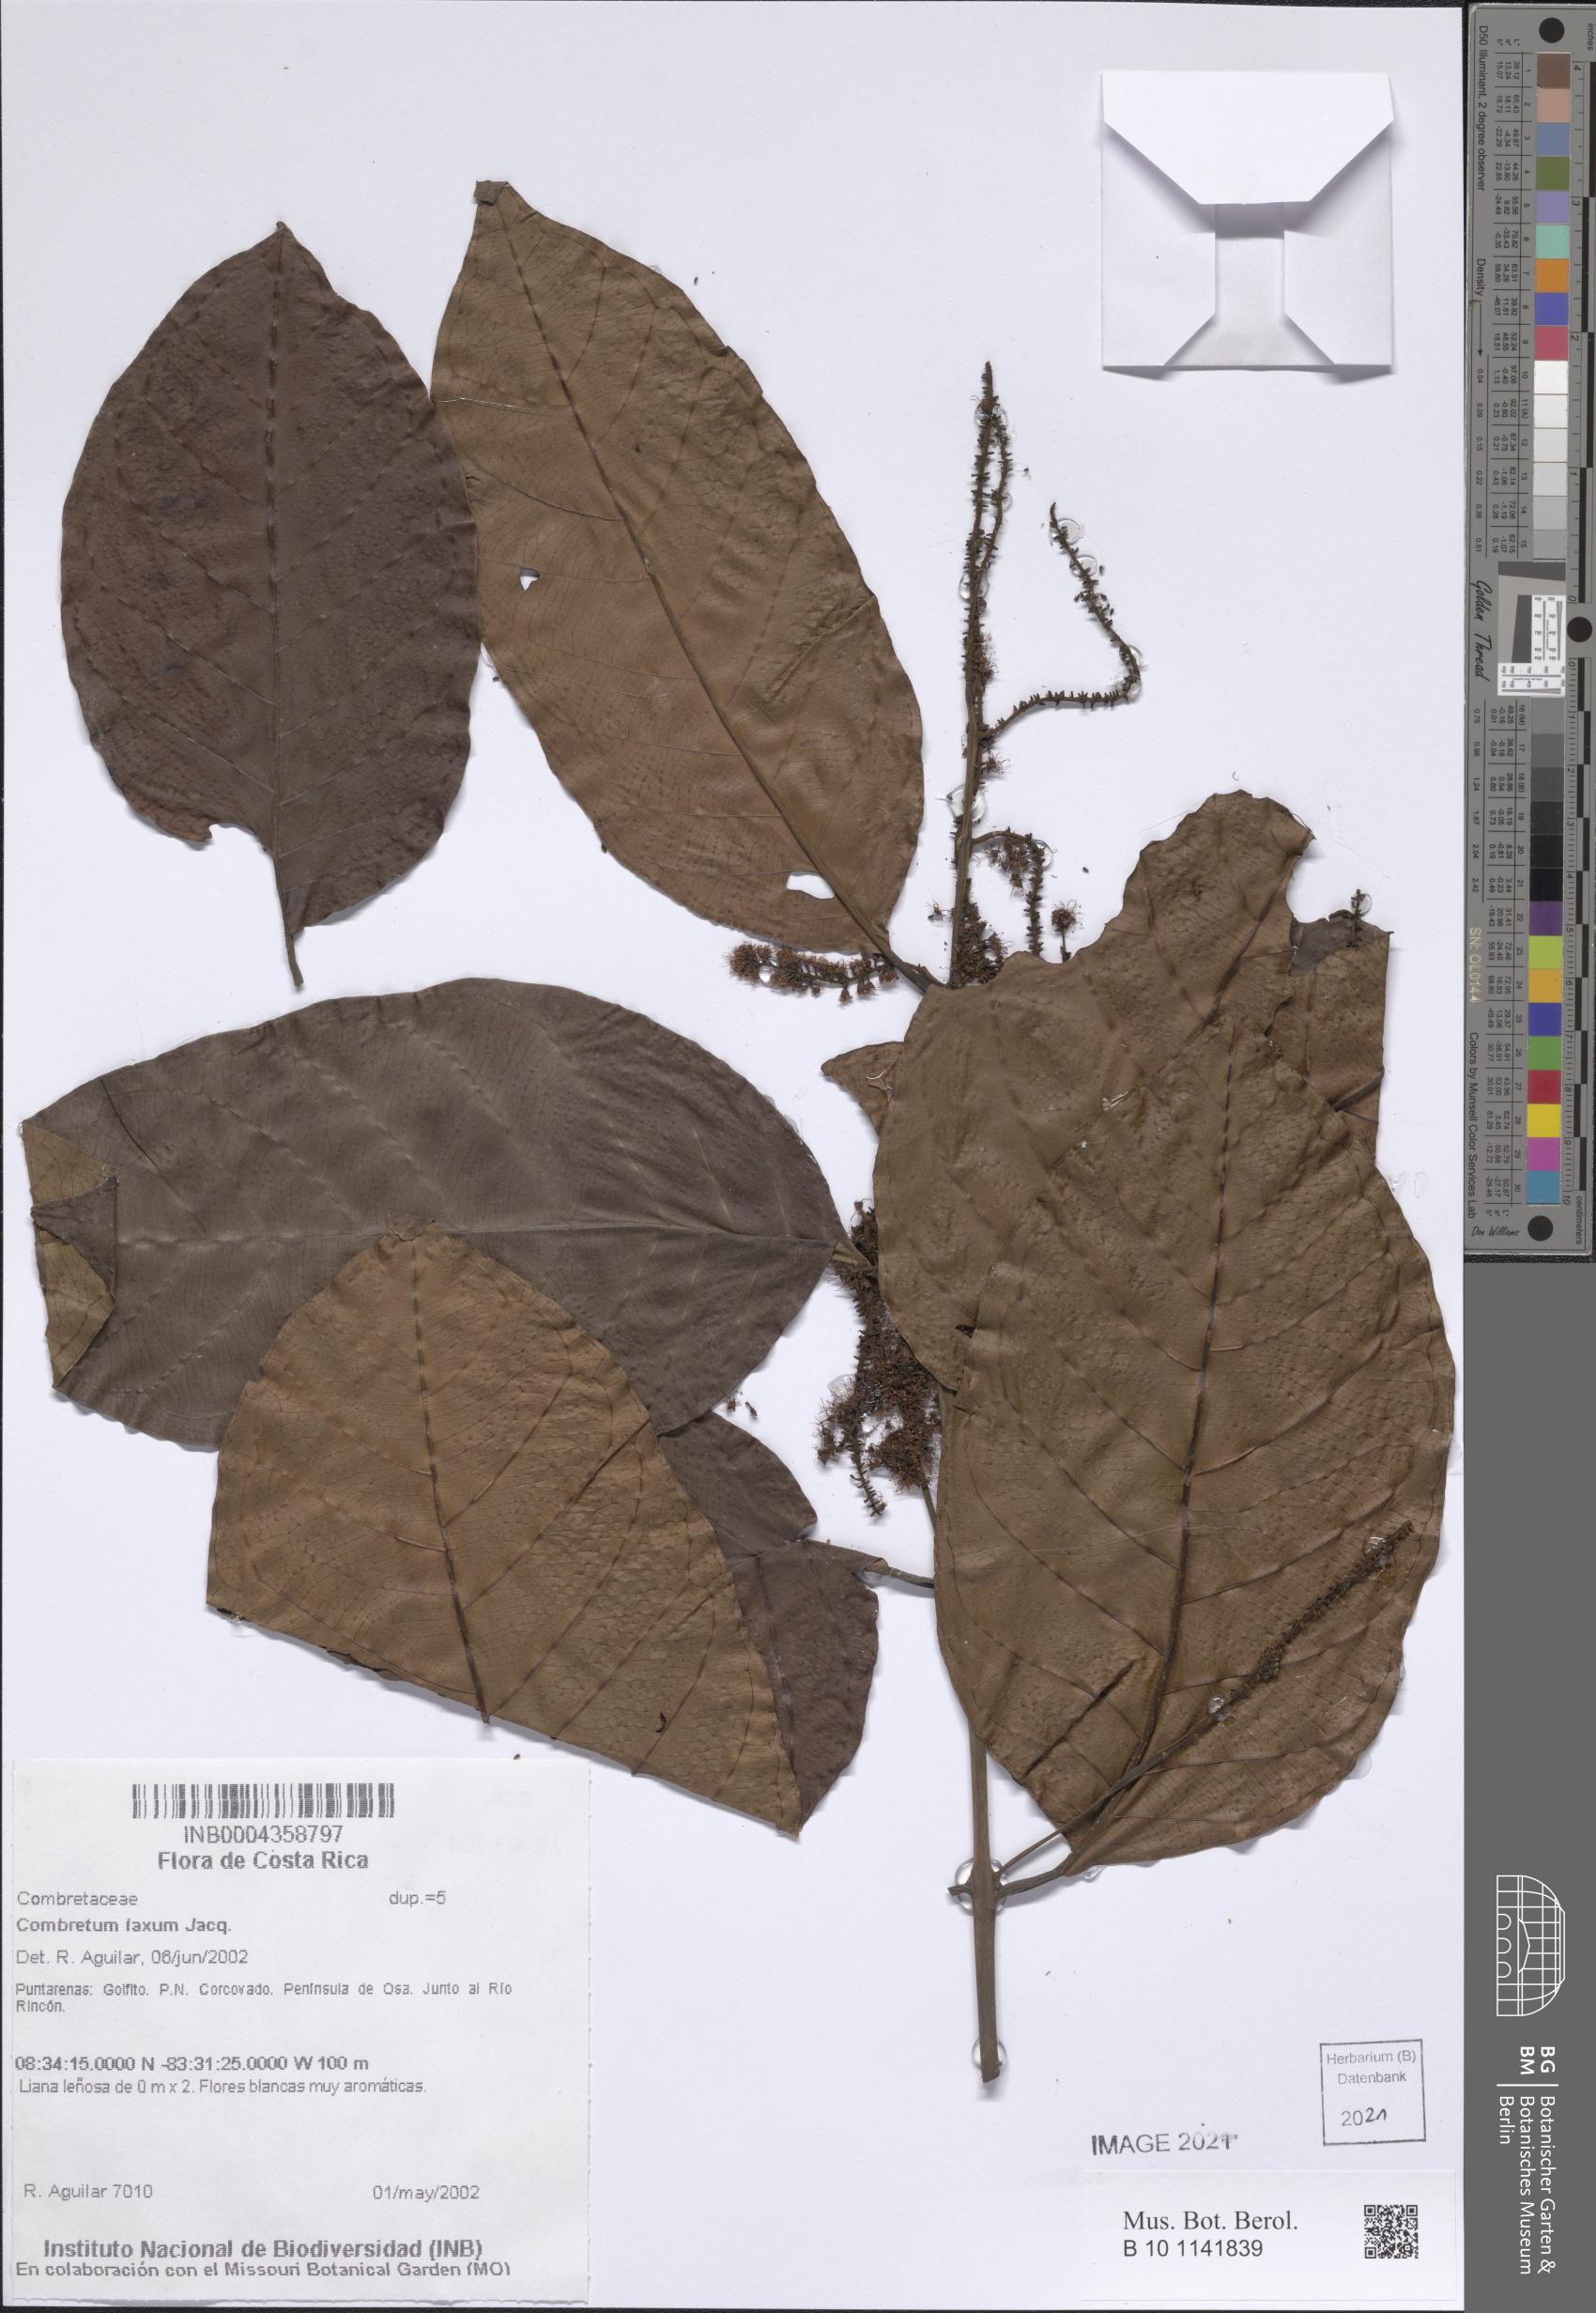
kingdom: Plantae
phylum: Tracheophyta
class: Magnoliopsida
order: Myrtales
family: Combretaceae
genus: Combretum
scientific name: Combretum laxum
